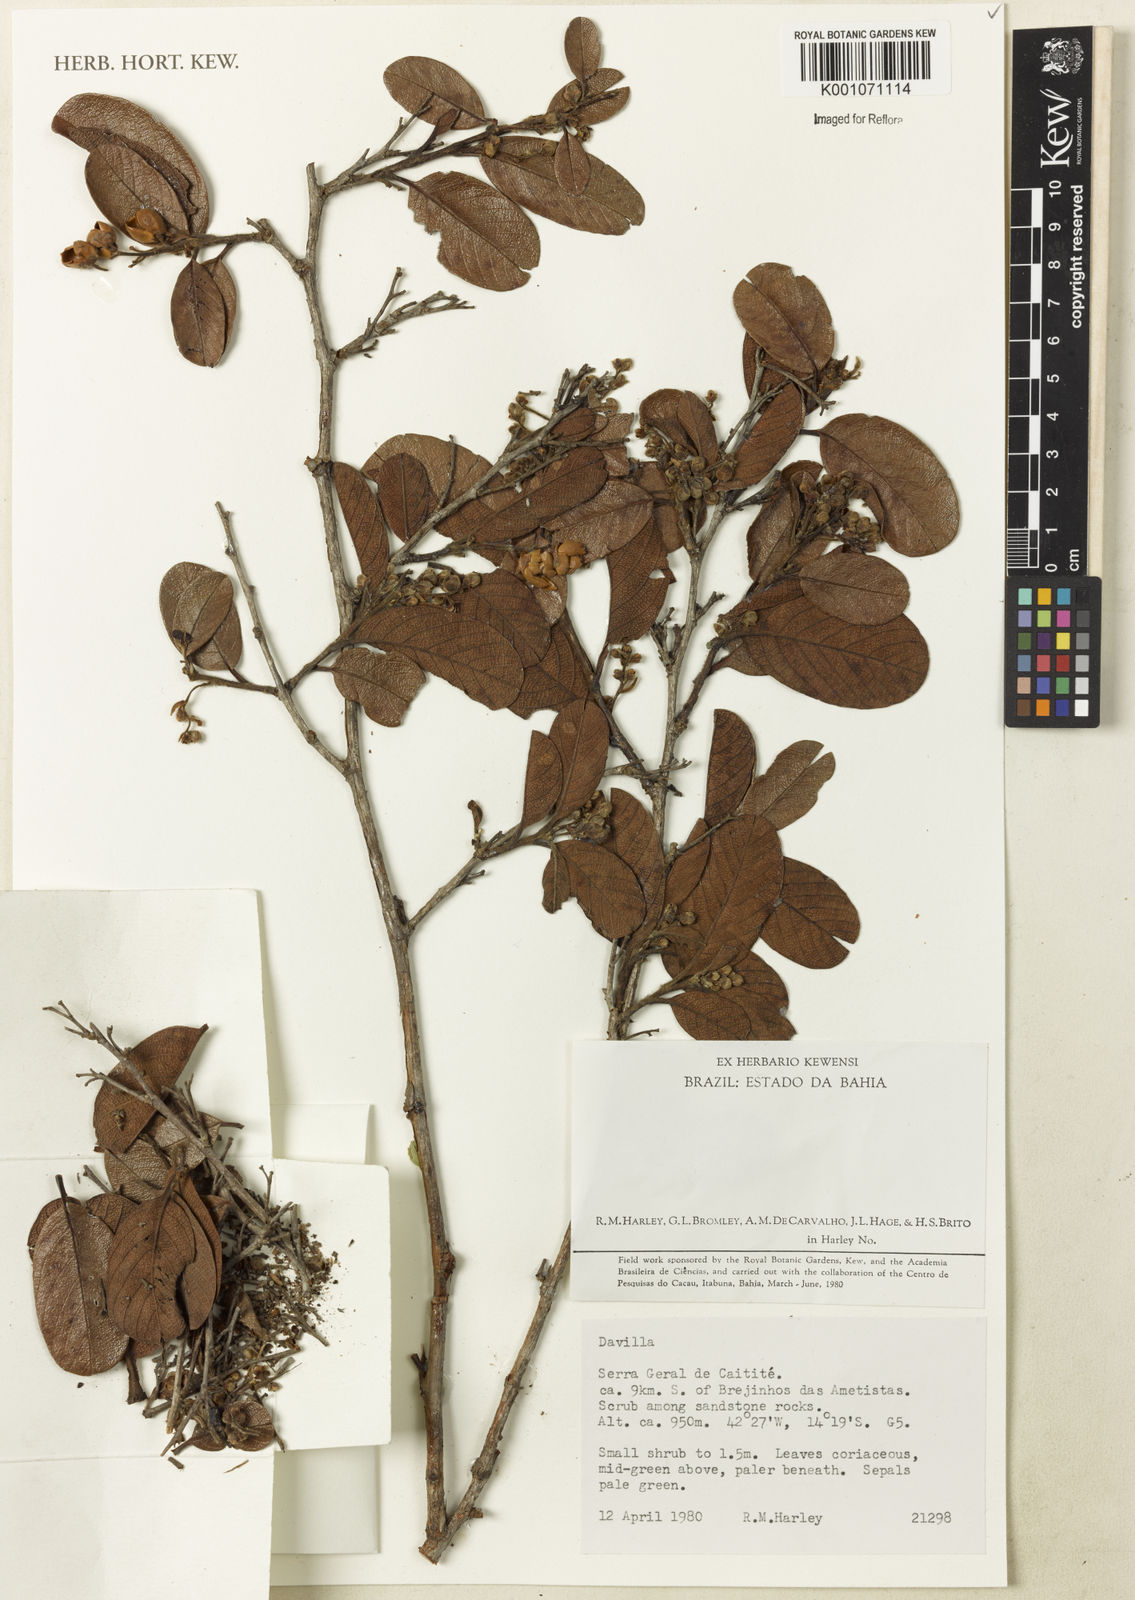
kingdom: Plantae
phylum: Tracheophyta
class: Magnoliopsida
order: Dilleniales
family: Dilleniaceae
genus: Davilla
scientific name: Davilla
